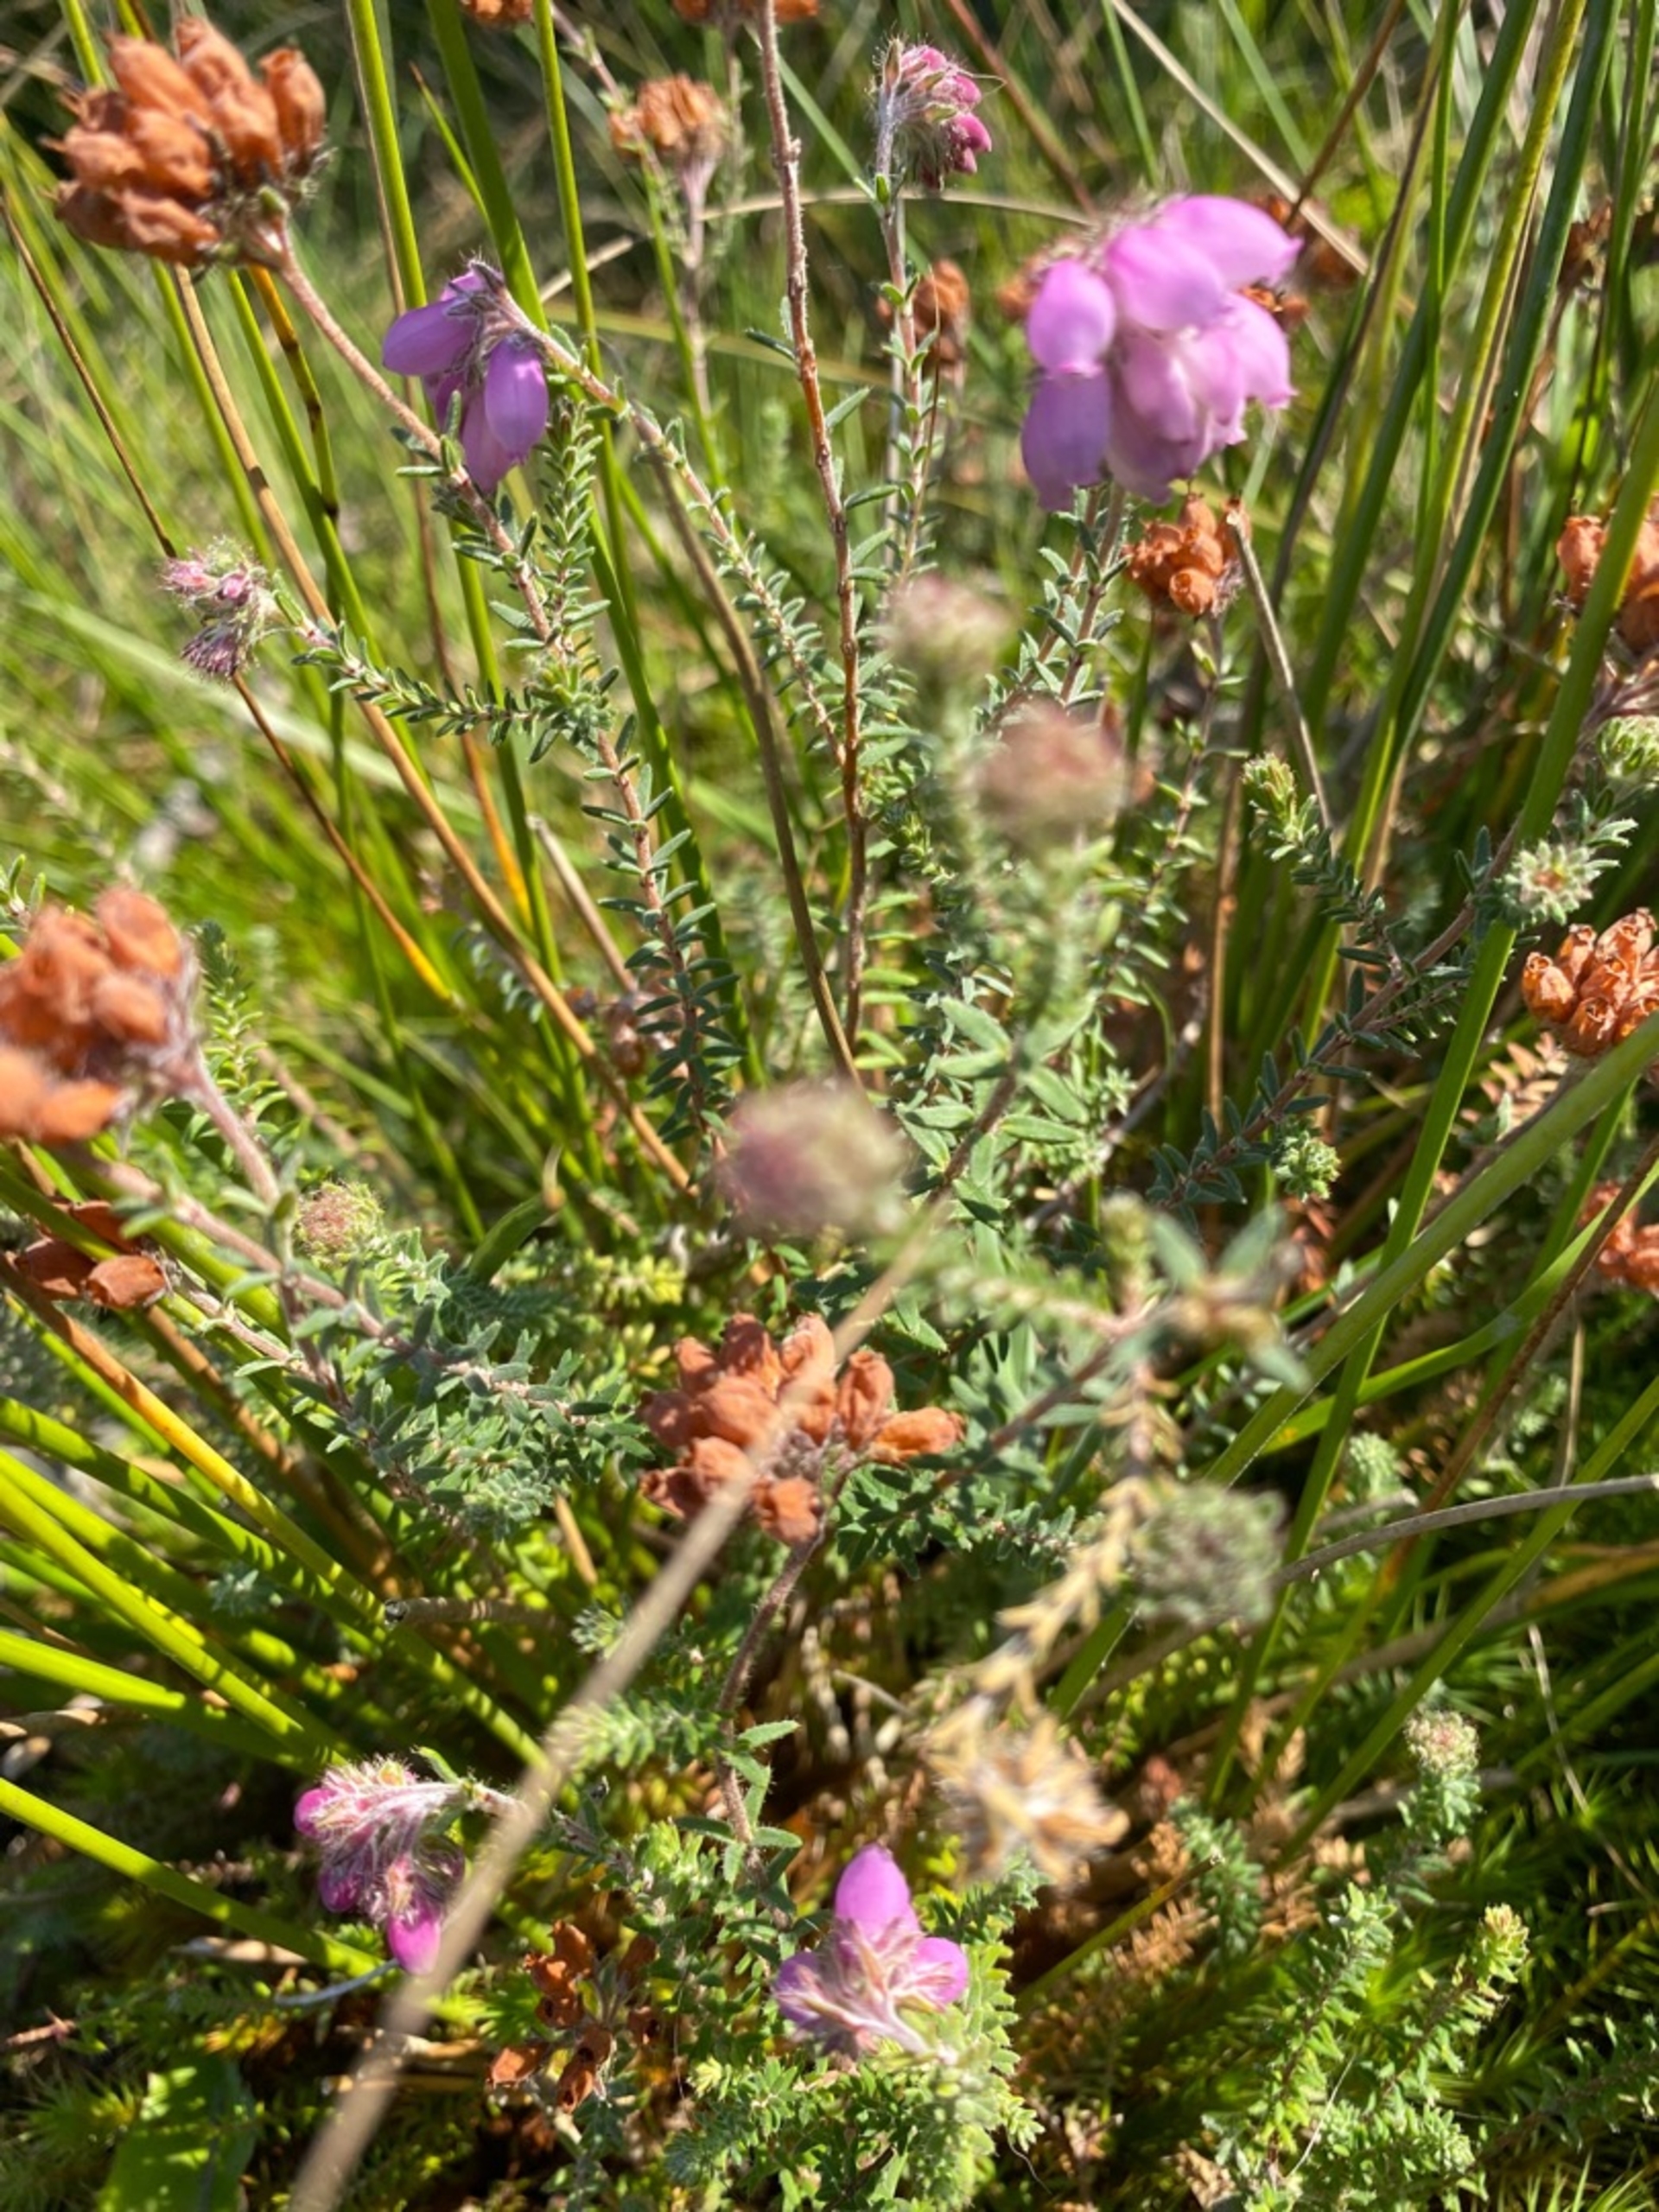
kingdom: Plantae
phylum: Tracheophyta
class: Magnoliopsida
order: Ericales
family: Ericaceae
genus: Erica
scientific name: Erica tetralix
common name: Klokkelyng
